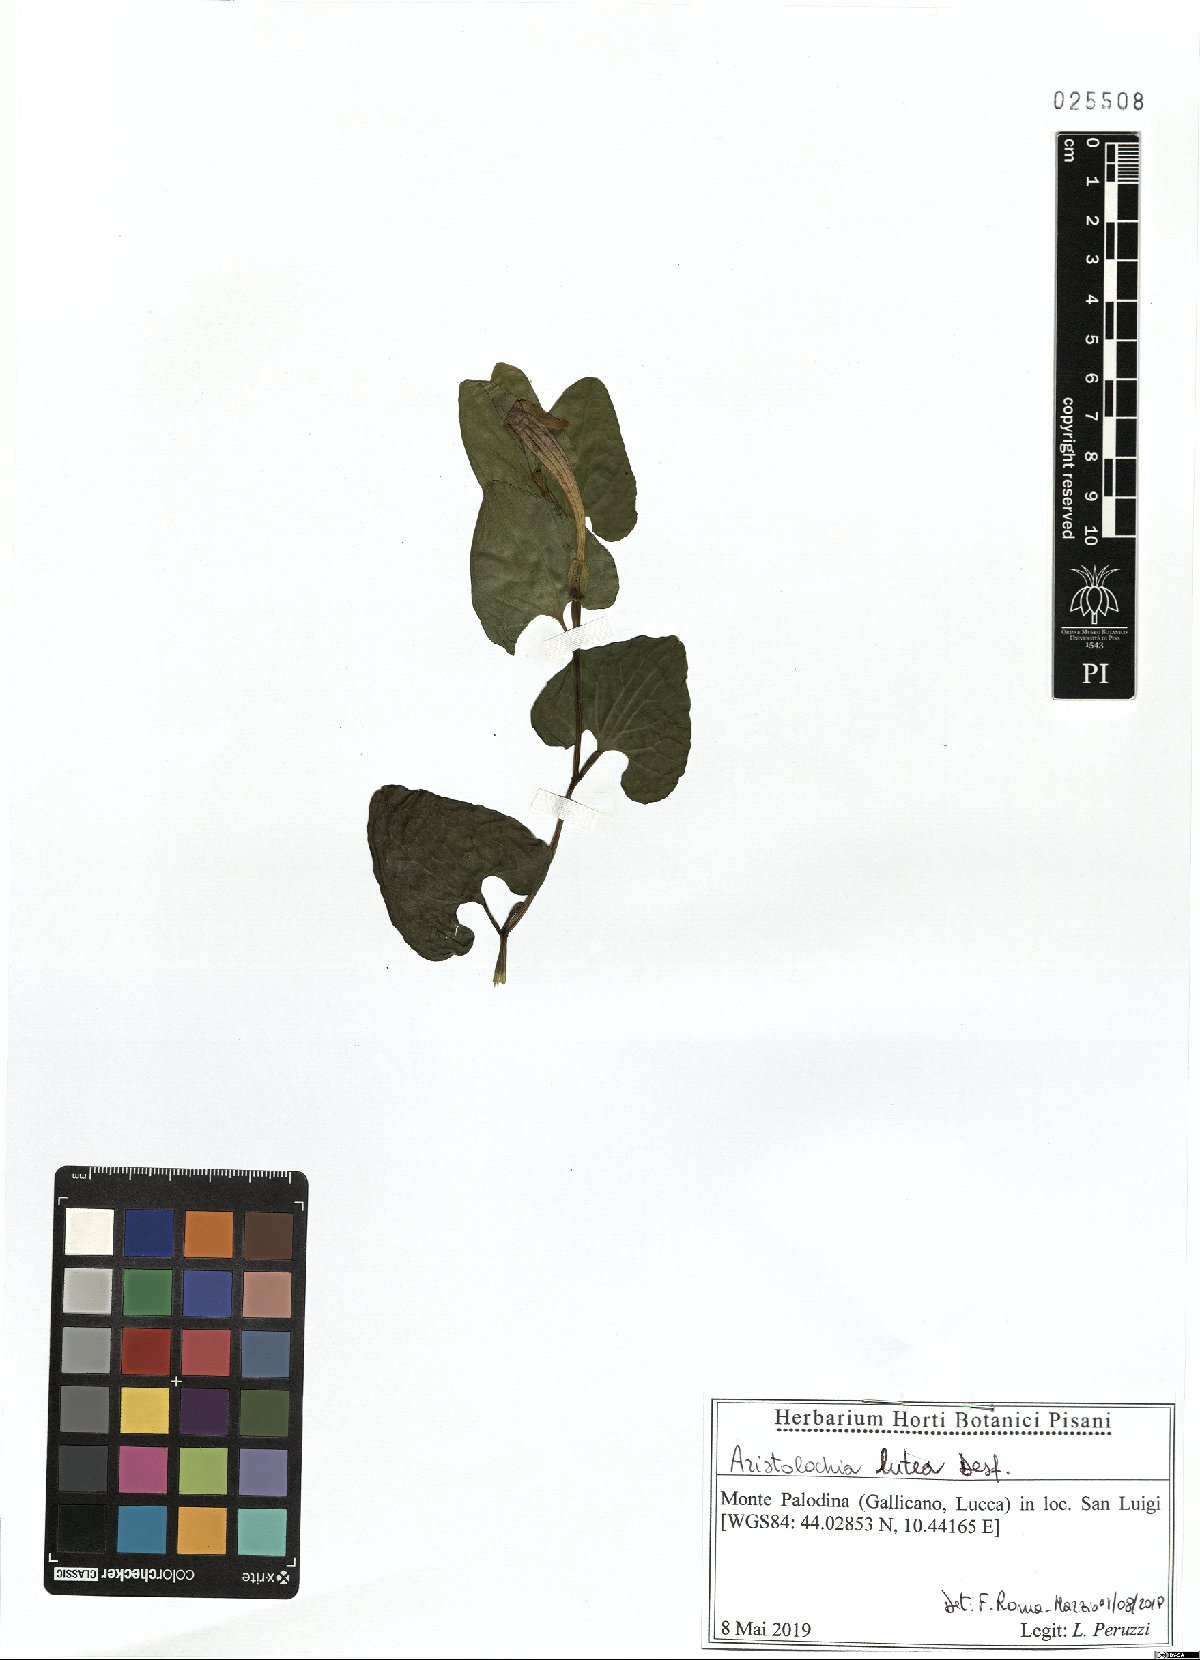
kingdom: Plantae
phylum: Tracheophyta
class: Magnoliopsida
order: Piperales
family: Aristolochiaceae
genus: Aristolochia
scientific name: Aristolochia lutea
